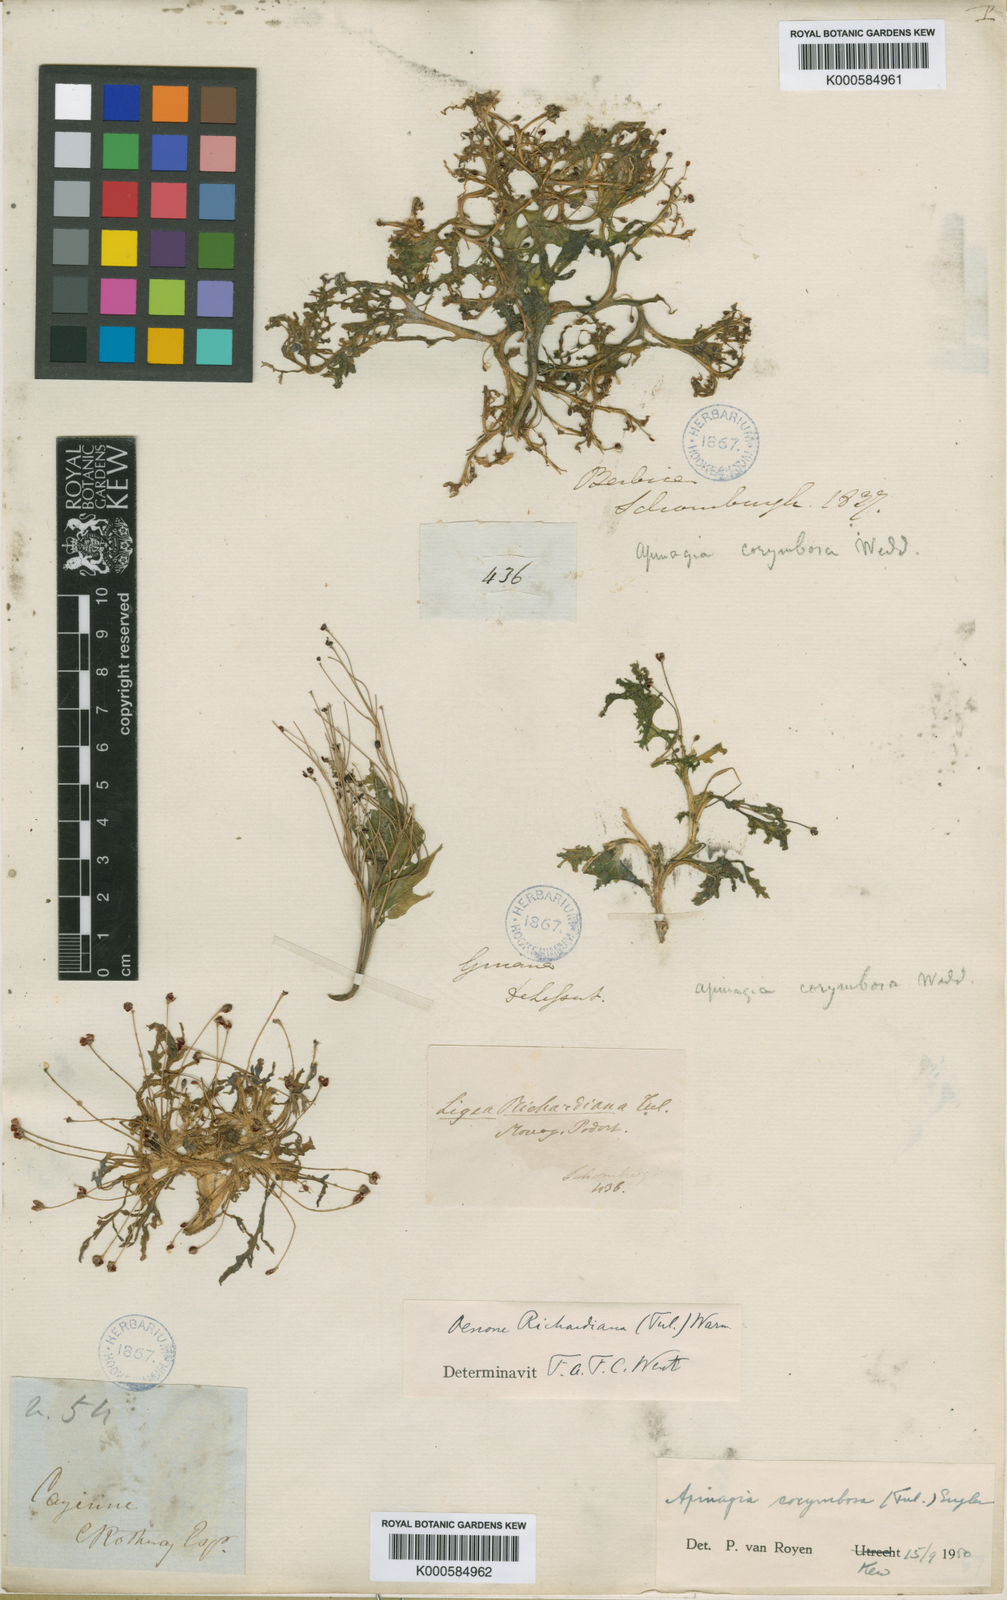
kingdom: Plantae
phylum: Tracheophyta
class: Magnoliopsida
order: Malpighiales
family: Podostemaceae
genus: Apinagia
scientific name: Apinagia corymbosa
